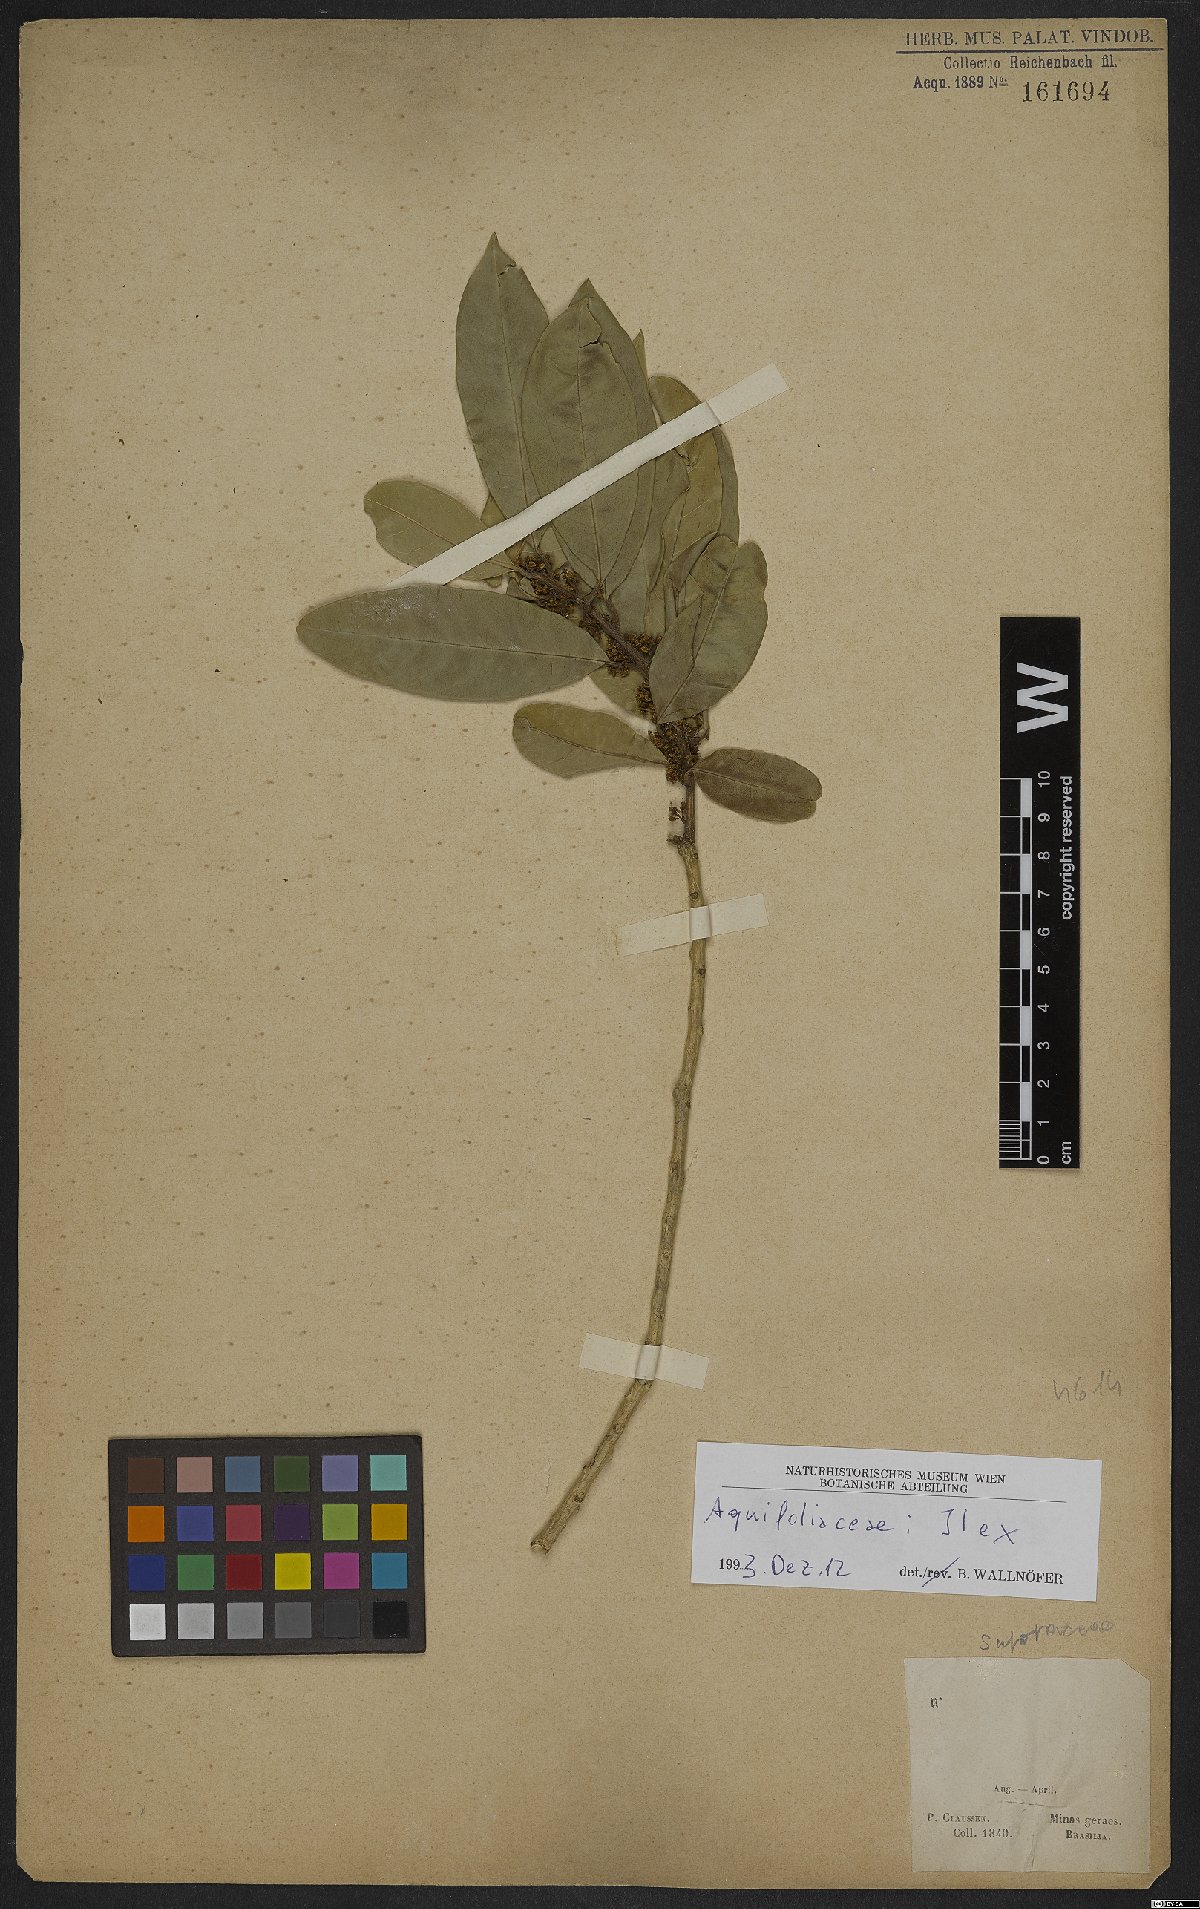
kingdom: Plantae
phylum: Tracheophyta
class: Magnoliopsida
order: Aquifoliales
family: Aquifoliaceae
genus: Ilex
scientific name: Ilex
